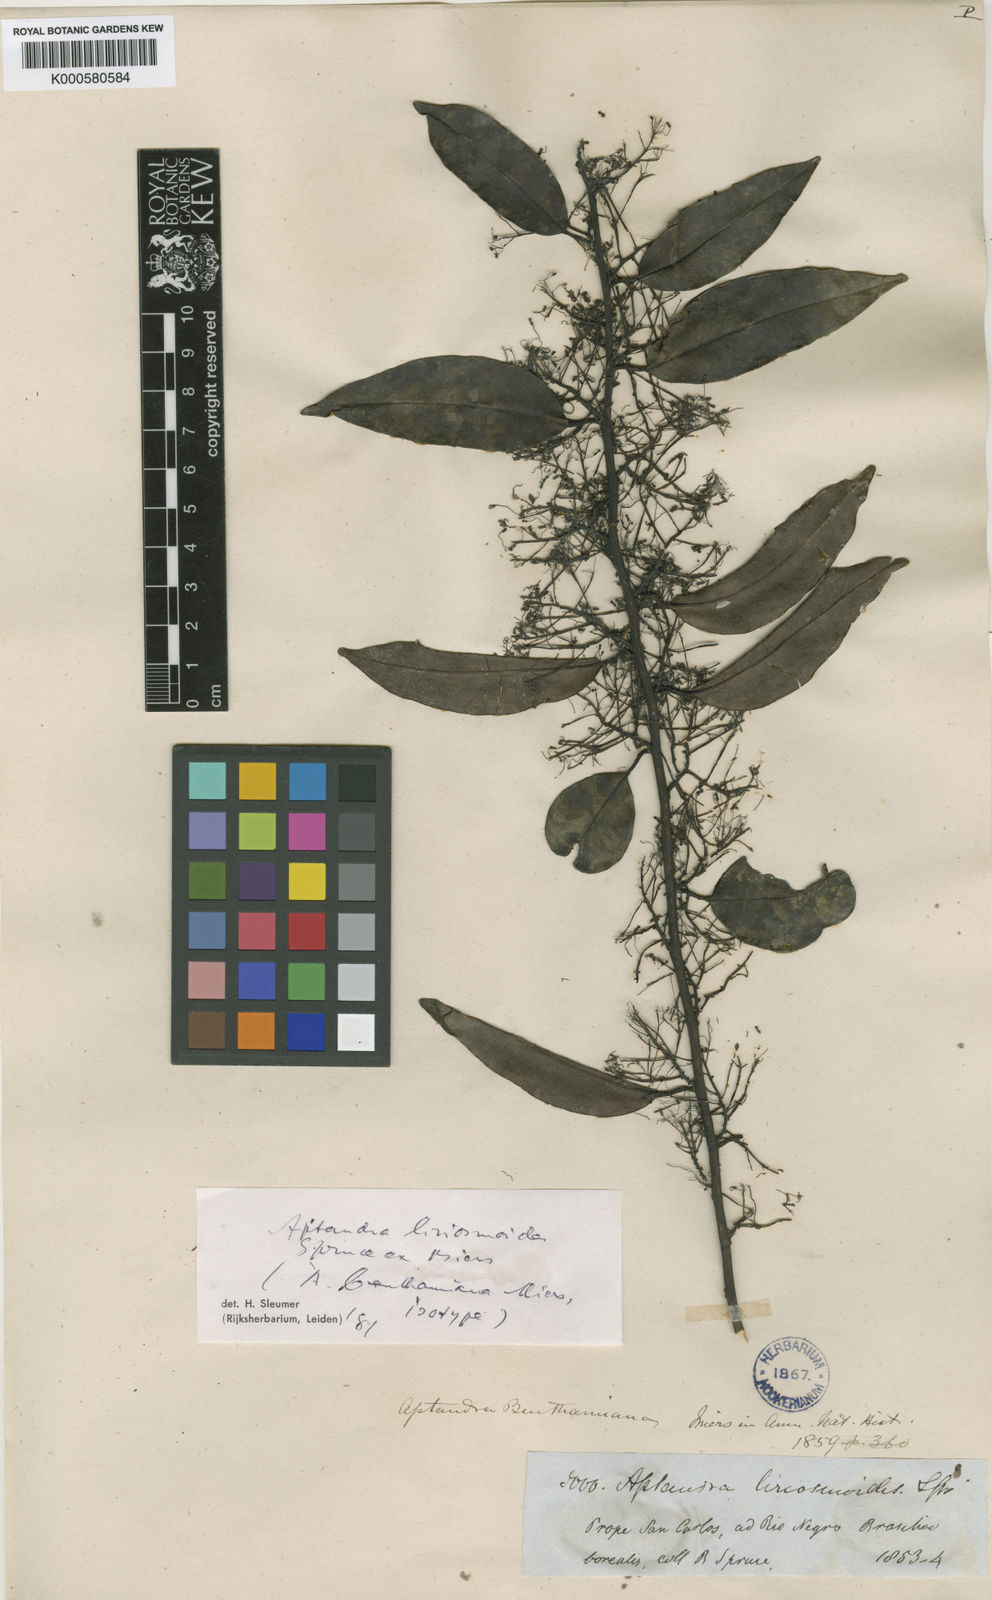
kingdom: Plantae
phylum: Tracheophyta
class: Magnoliopsida
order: Santalales
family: Aptandraceae
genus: Aptandra
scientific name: Aptandra liriosmoides
